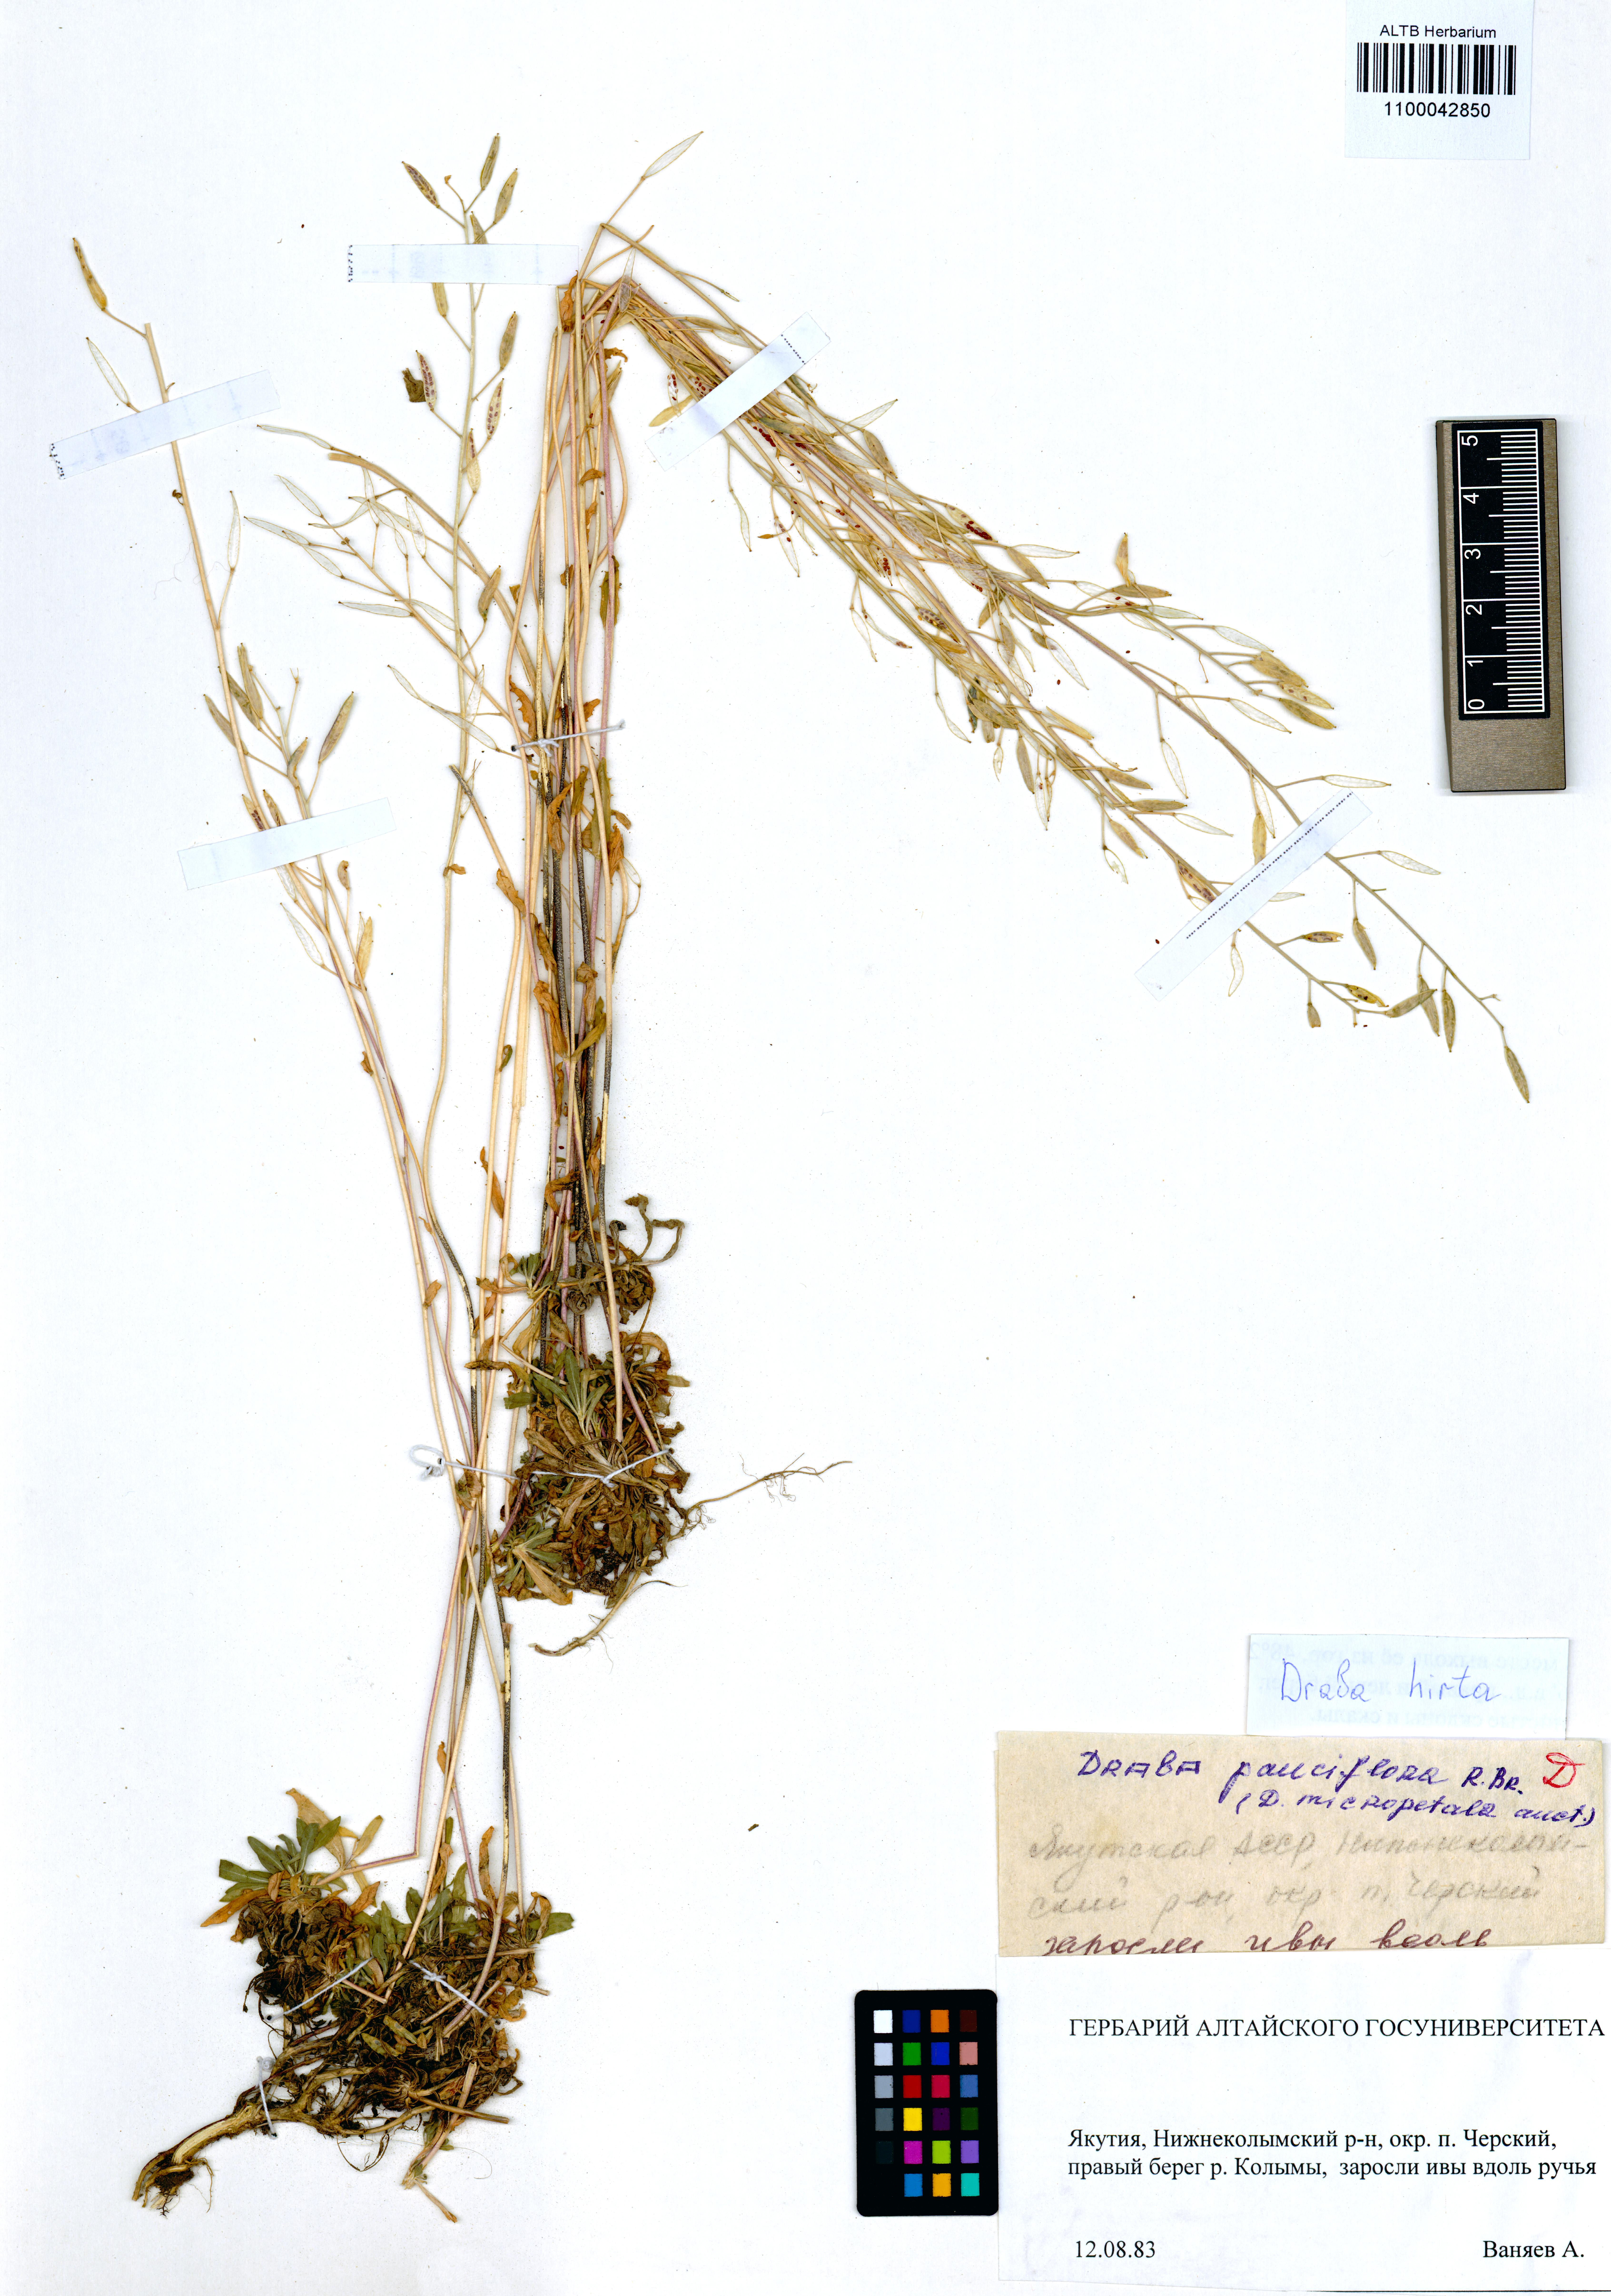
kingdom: Plantae
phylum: Tracheophyta
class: Magnoliopsida
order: Brassicales
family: Brassicaceae
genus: Draba
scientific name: Draba glabella
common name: Glaucous draba
